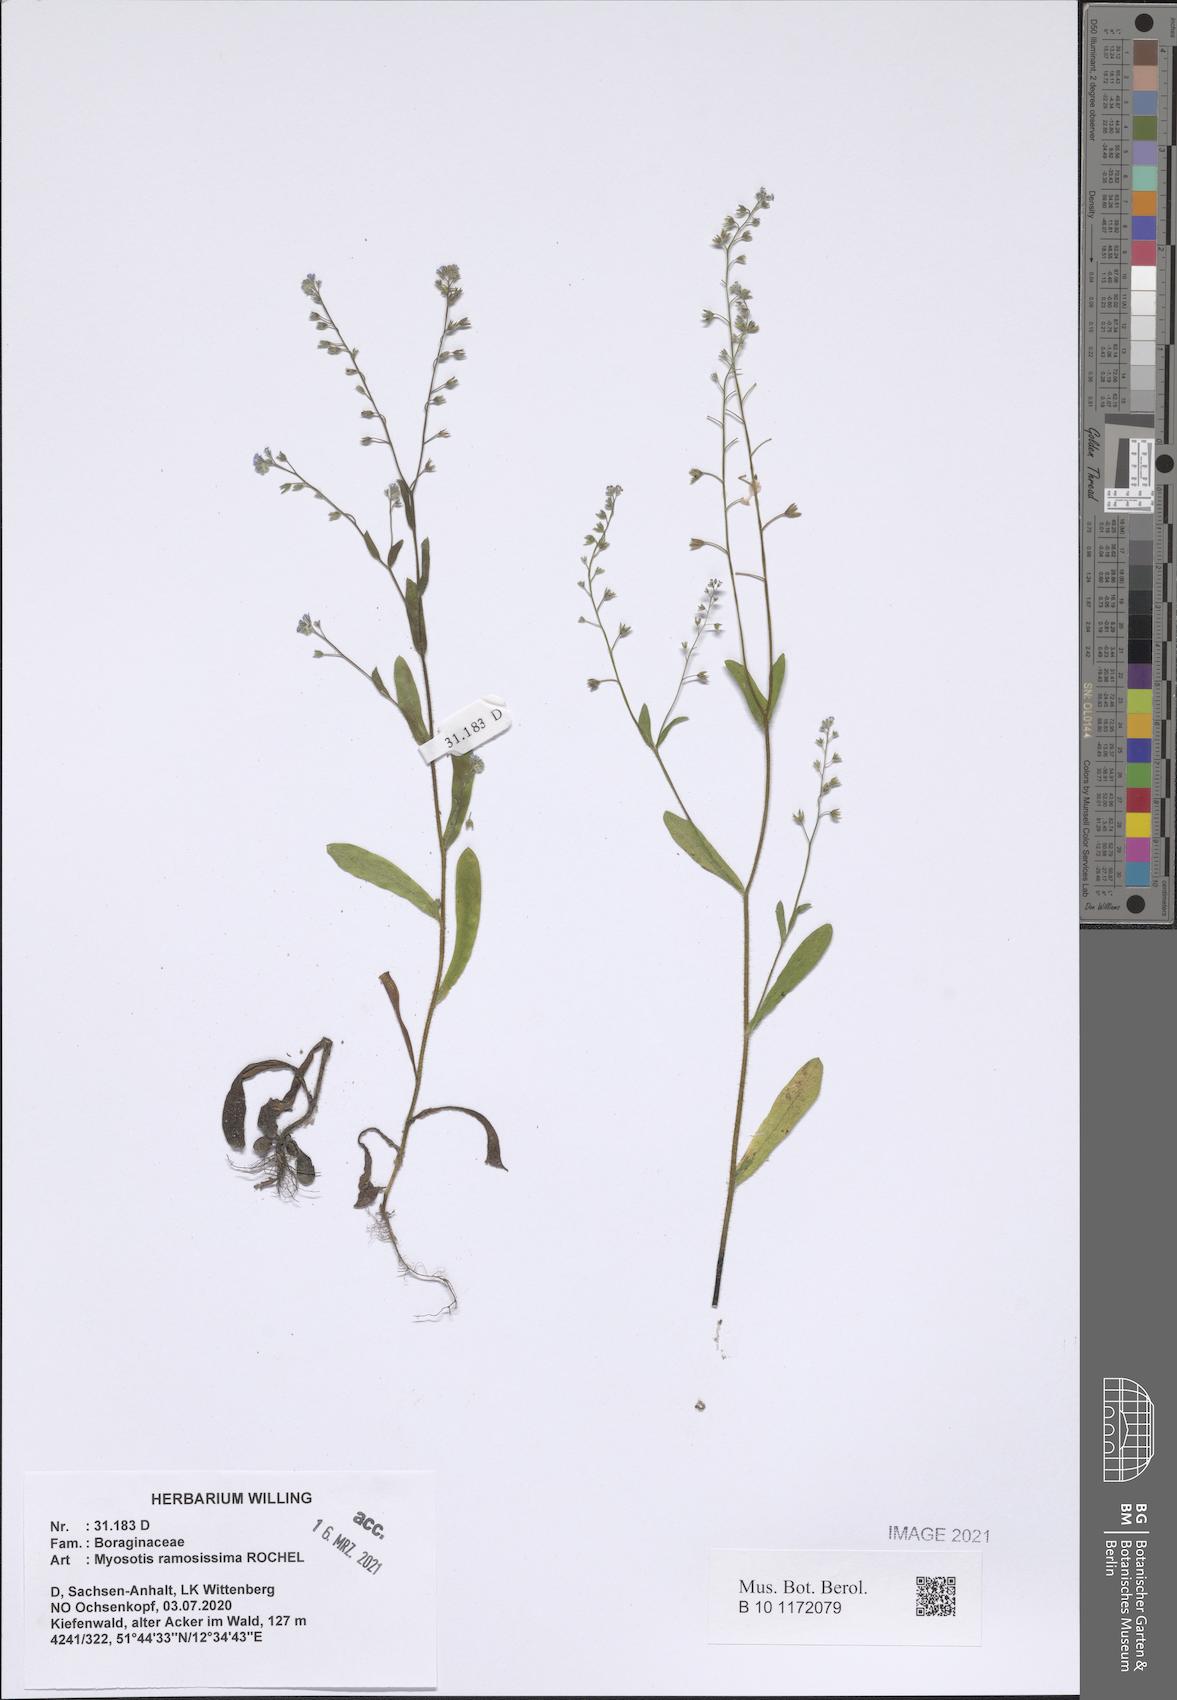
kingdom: Plantae
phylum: Tracheophyta
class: Magnoliopsida
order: Boraginales
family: Boraginaceae
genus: Myosotis
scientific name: Myosotis ramosissima
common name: Early forget-me-not
